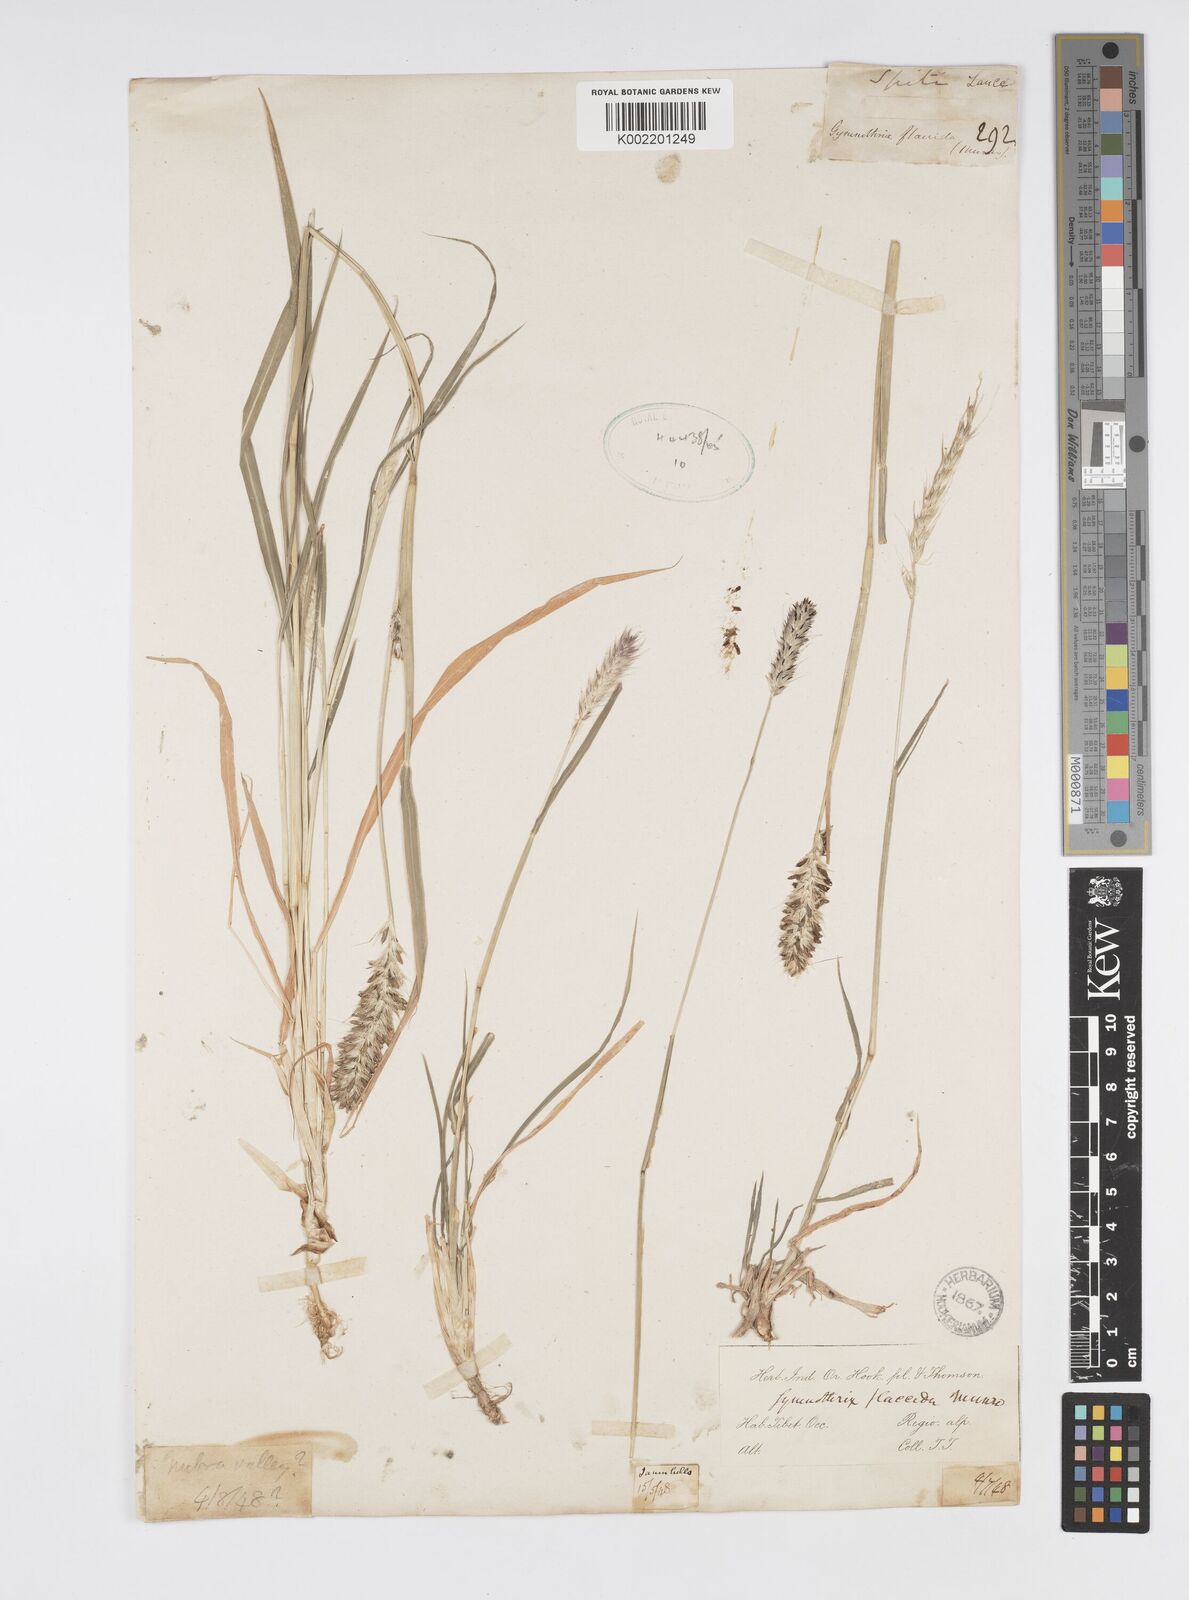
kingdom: Plantae
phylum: Tracheophyta
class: Liliopsida
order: Poales
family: Poaceae
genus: Cenchrus
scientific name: Cenchrus flaccidus
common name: Flaccid grass
